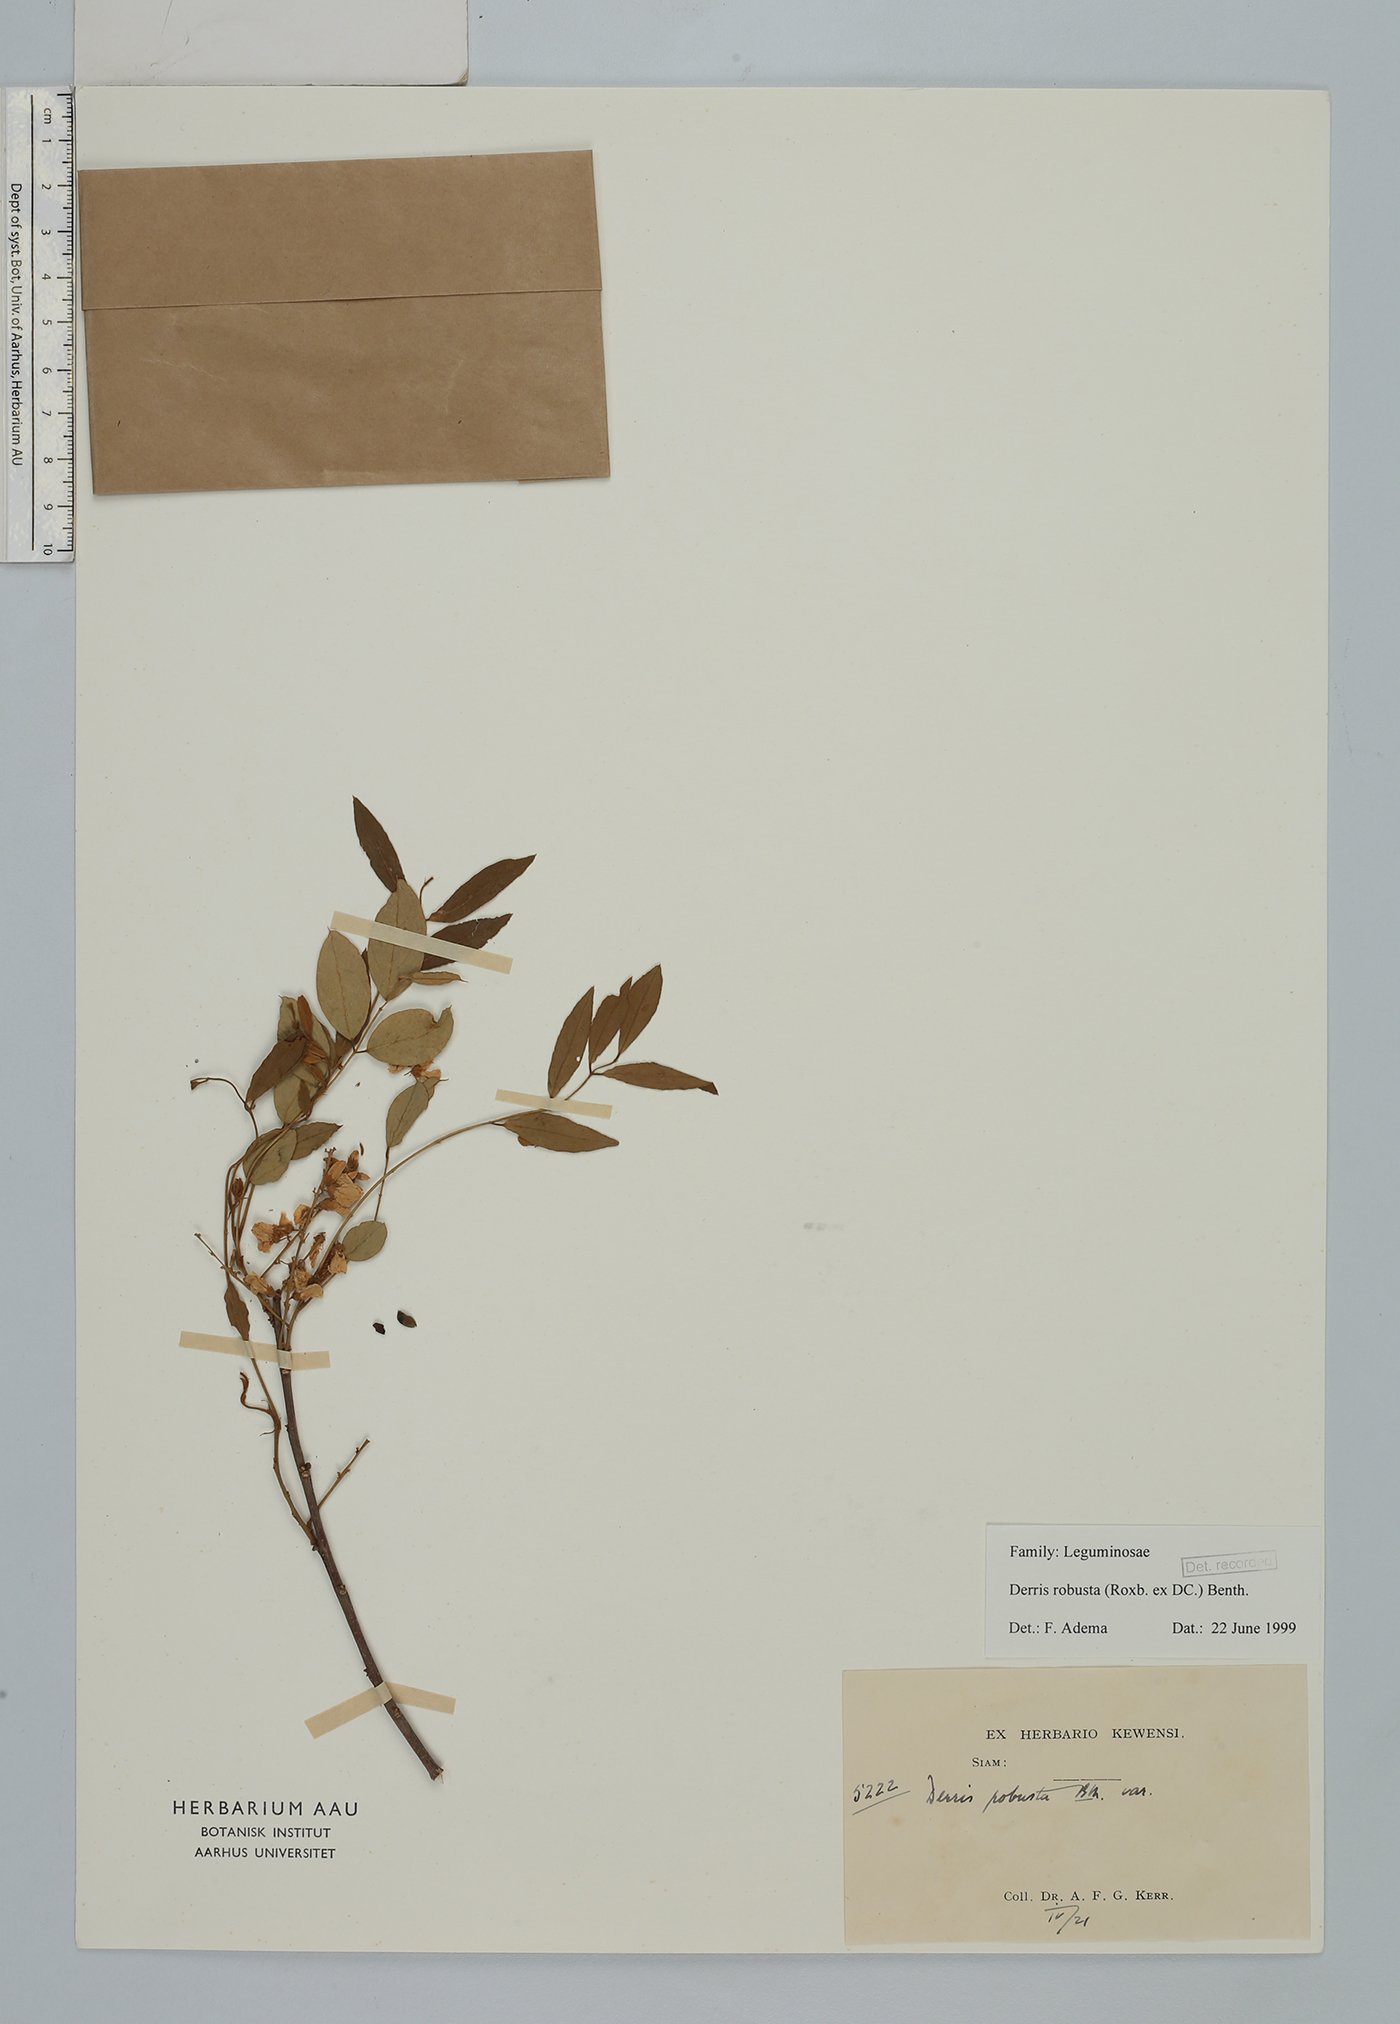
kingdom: Plantae
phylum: Tracheophyta
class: Magnoliopsida
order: Fabales
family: Fabaceae
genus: Brachypterum
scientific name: Brachypterum robustum
